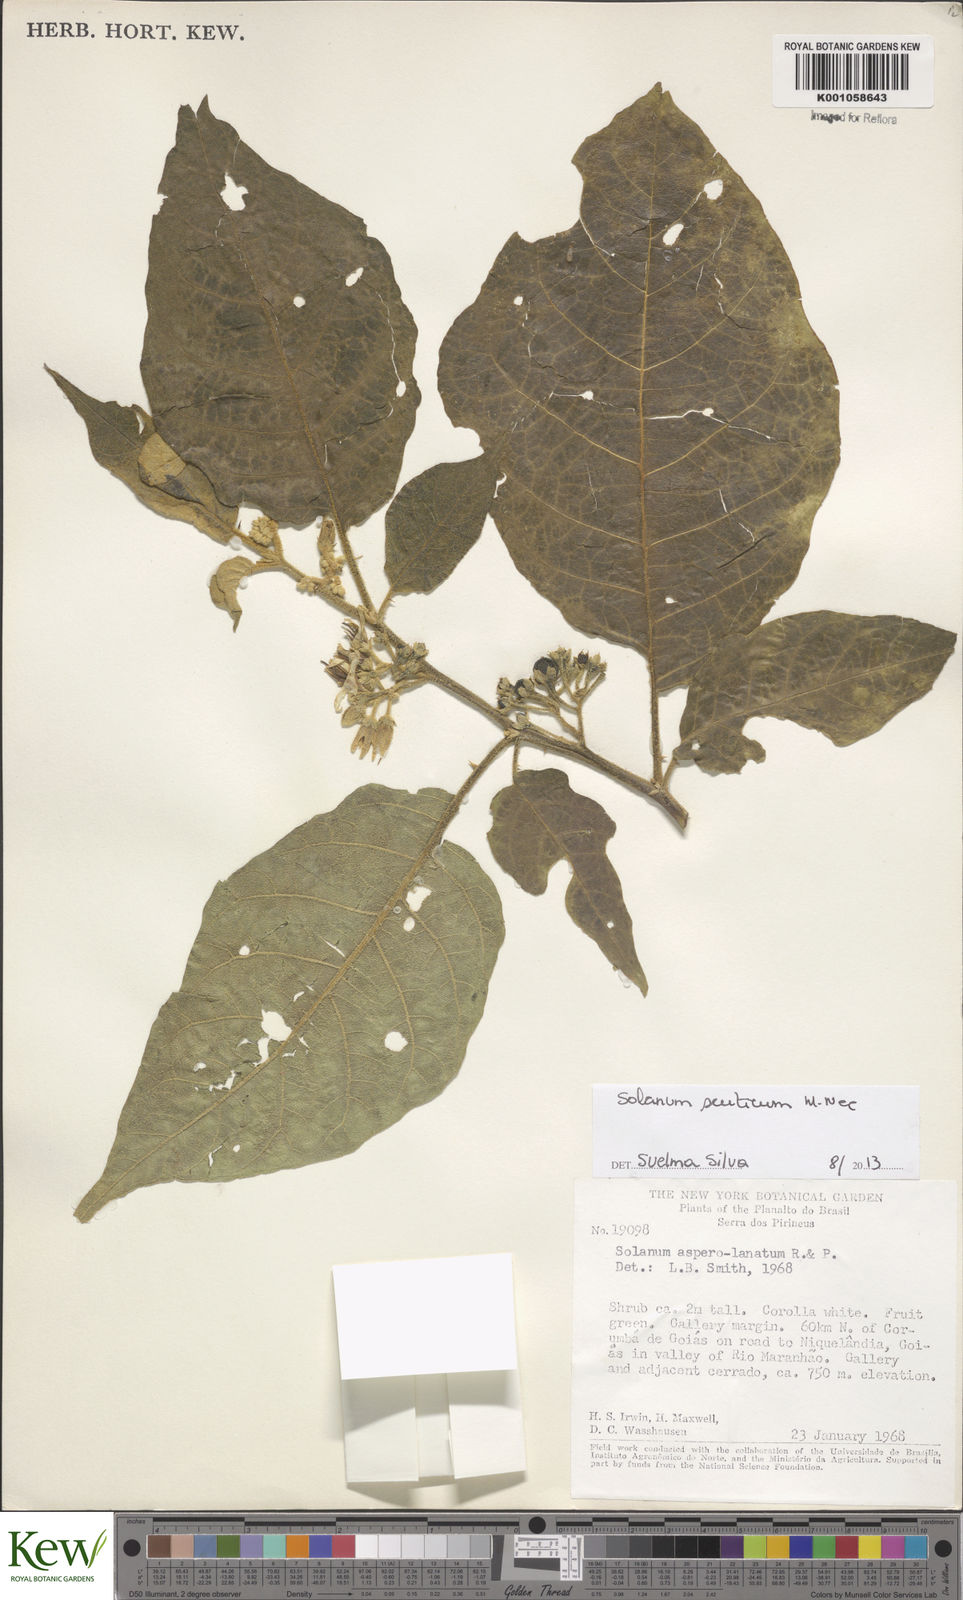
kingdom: Plantae
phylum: Tracheophyta
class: Magnoliopsida
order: Solanales
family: Solanaceae
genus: Solanum
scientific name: Solanum scuticum
